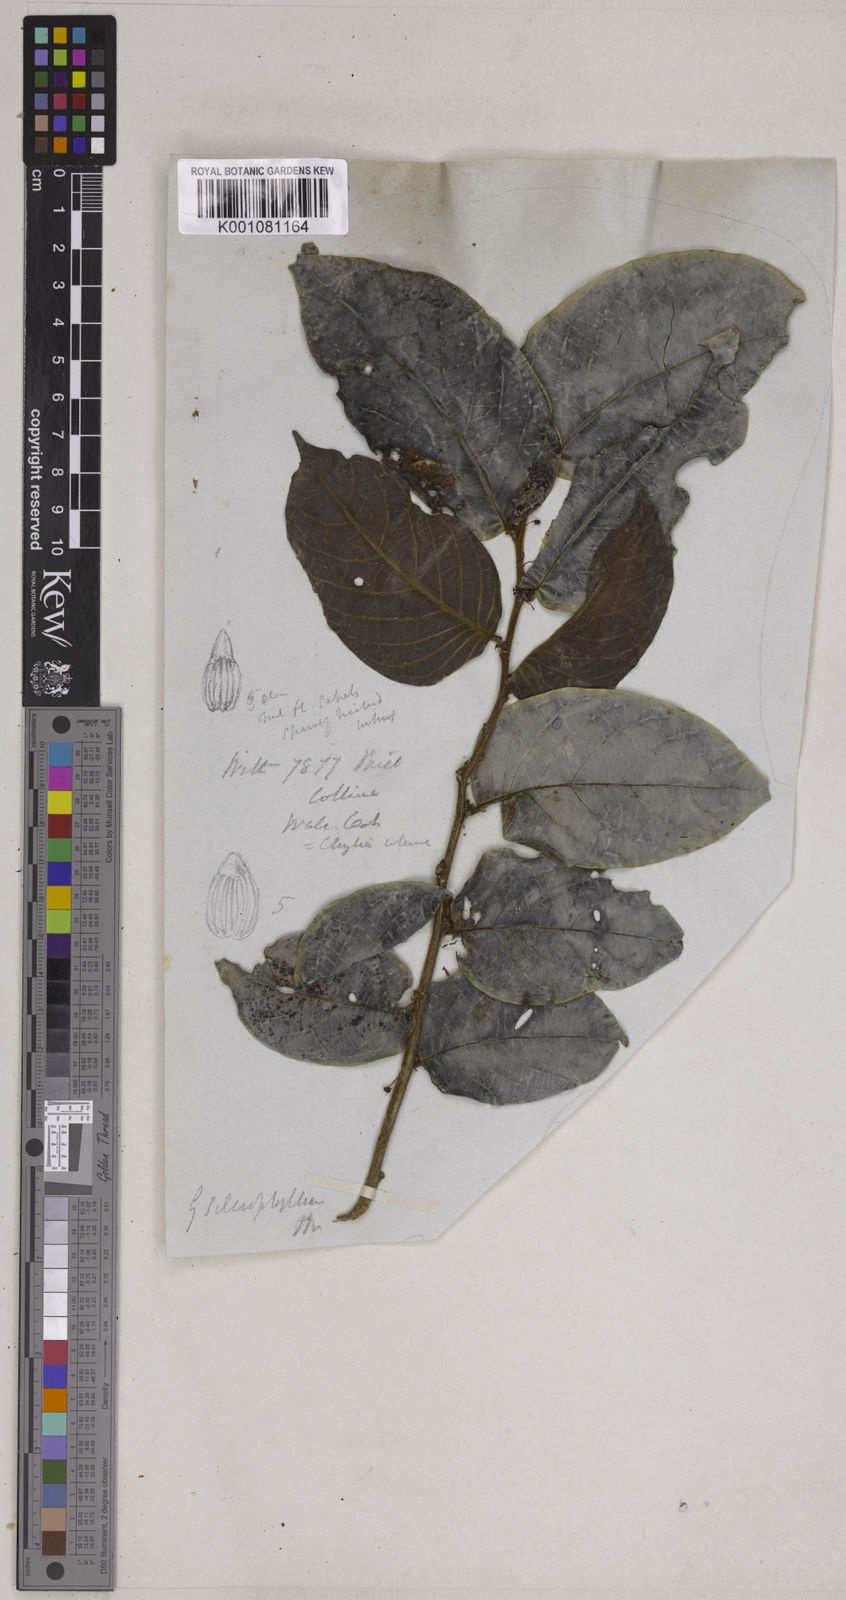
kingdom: Plantae
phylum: Tracheophyta
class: Magnoliopsida
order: Malpighiales
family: Phyllanthaceae
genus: Glochidion
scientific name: Glochidion zeylanicum
